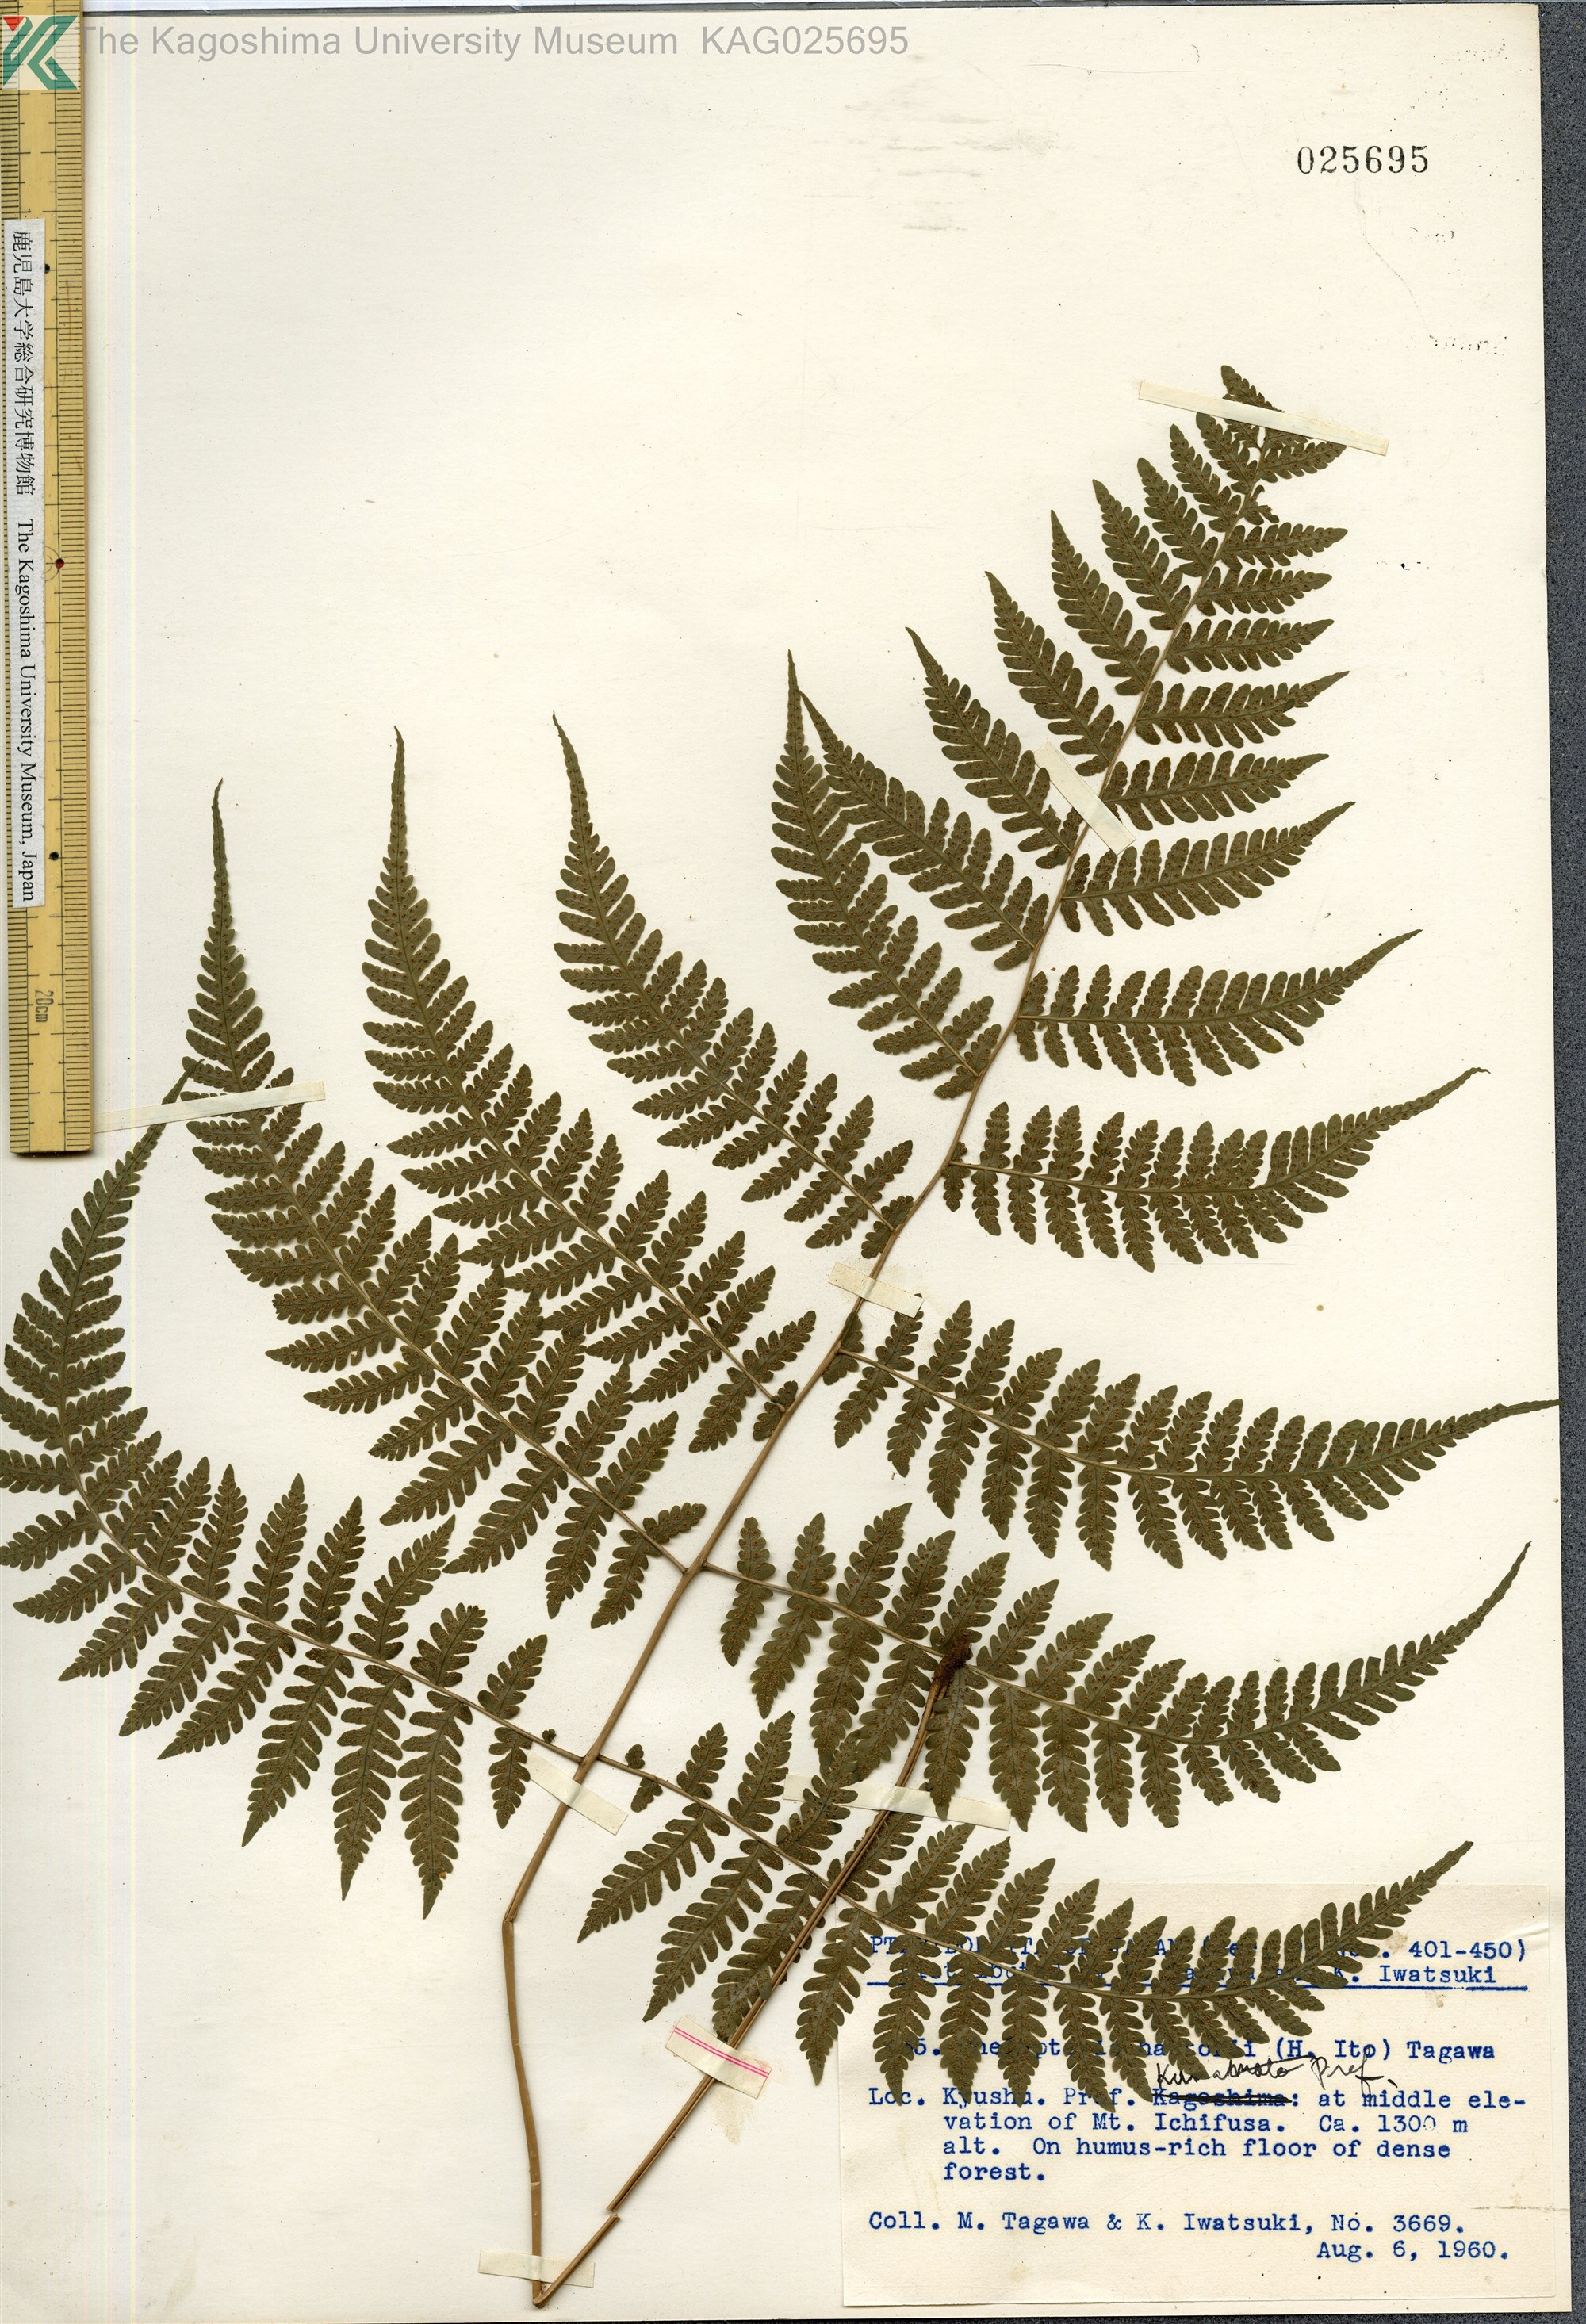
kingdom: Plantae
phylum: Tracheophyta
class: Polypodiopsida
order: Polypodiales
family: Thelypteridaceae
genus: Metathelypteris
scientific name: Metathelypteris hattori
